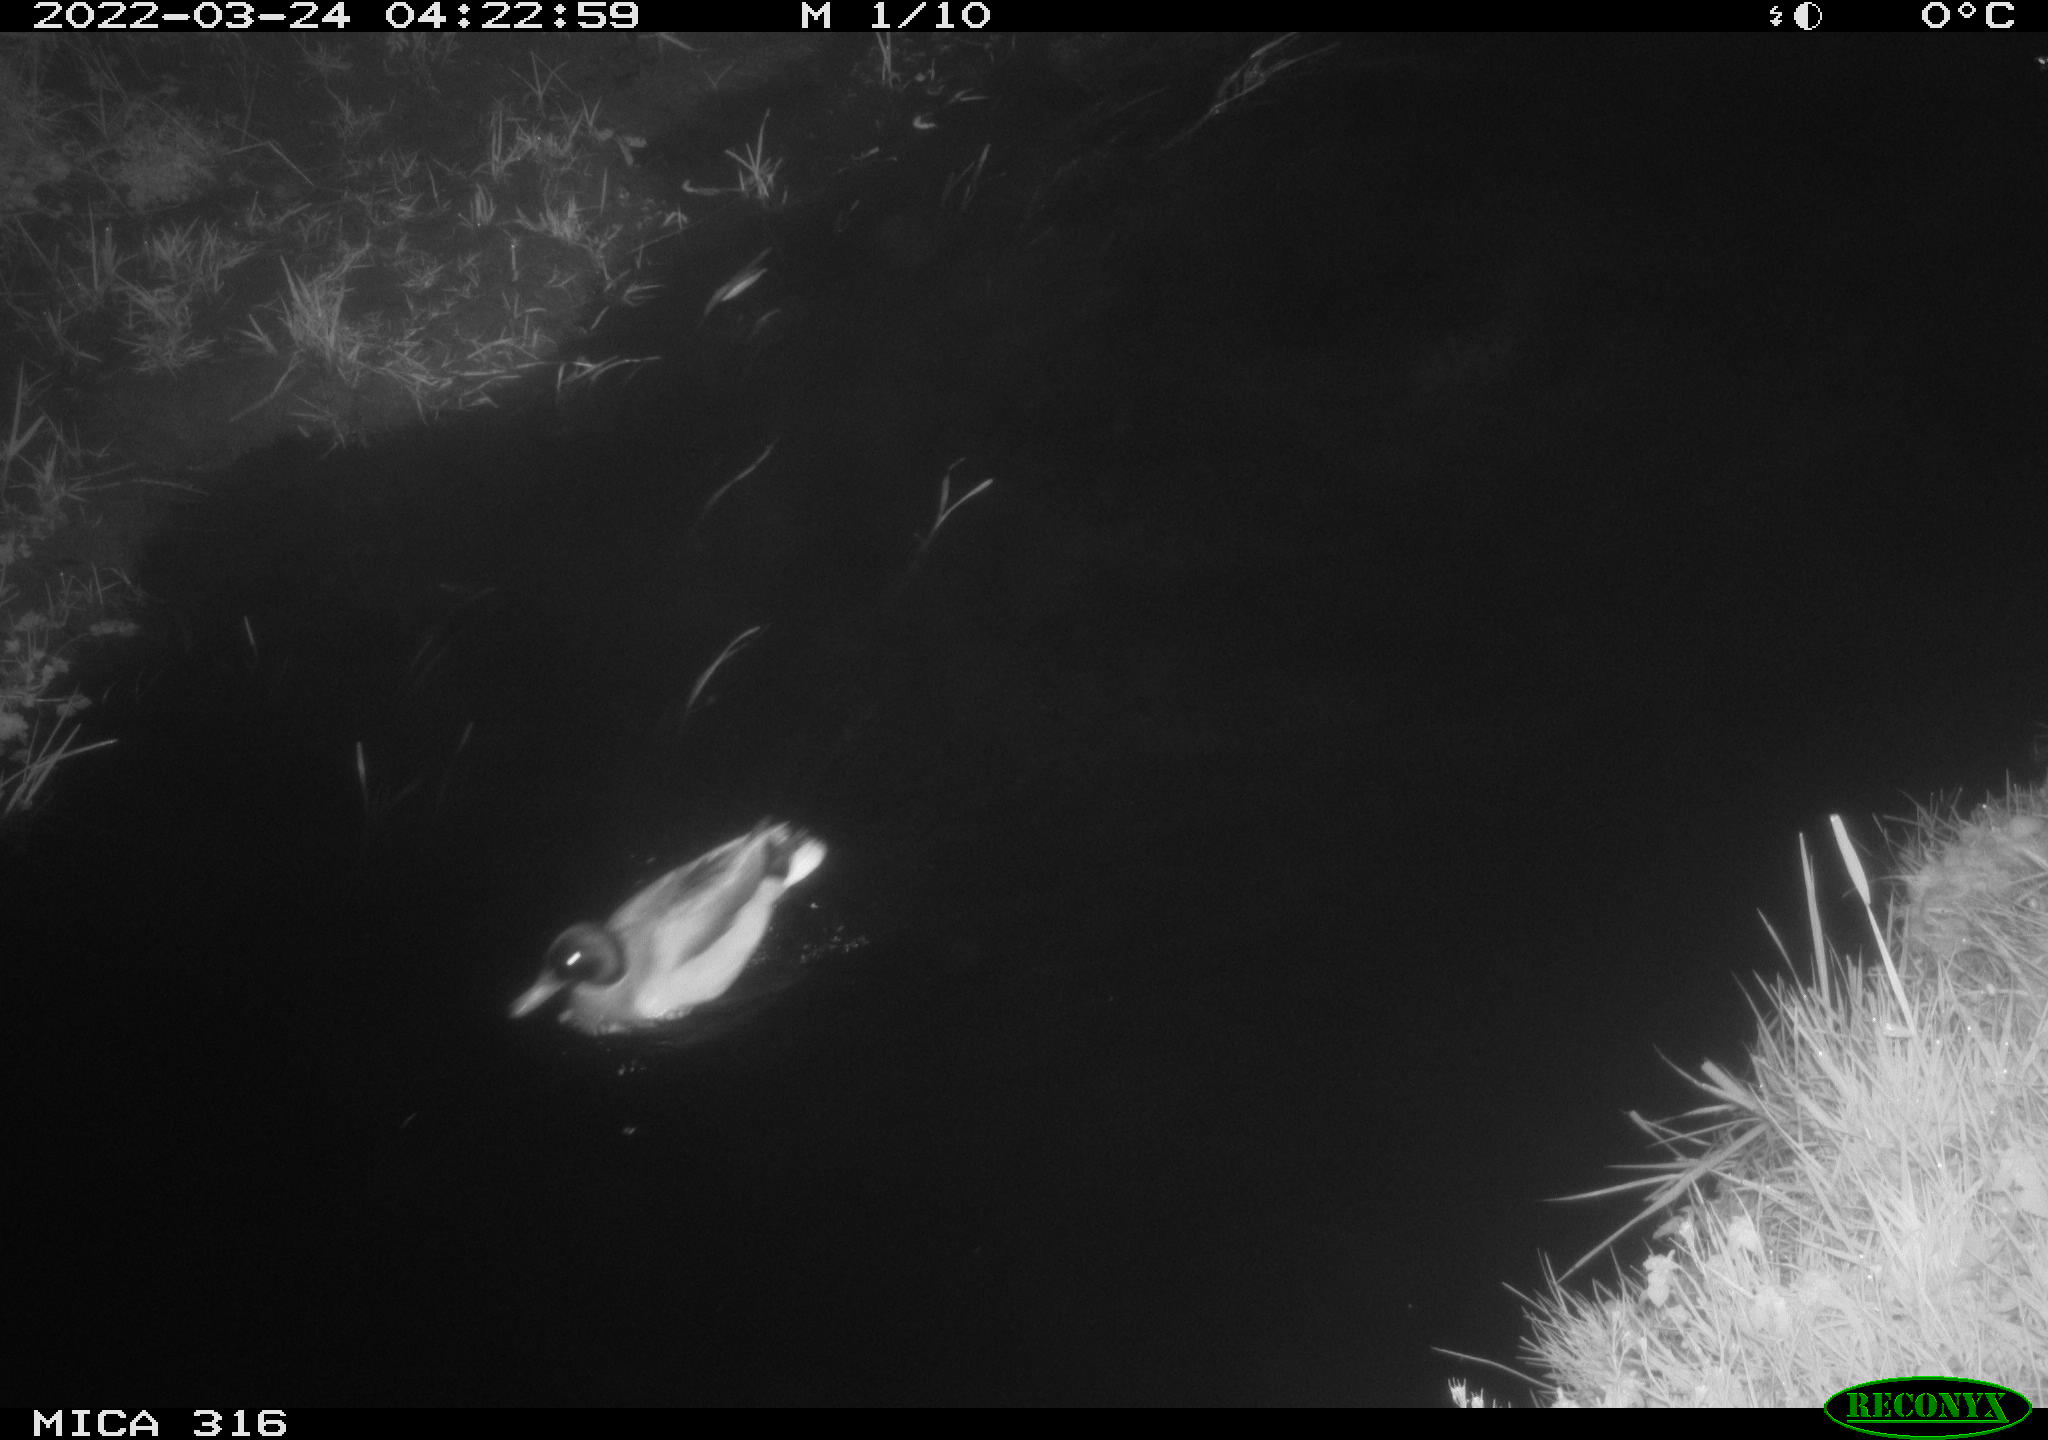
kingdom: Animalia
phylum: Chordata
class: Aves
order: Anseriformes
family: Anatidae
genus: Anas
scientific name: Anas platyrhynchos
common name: Mallard
